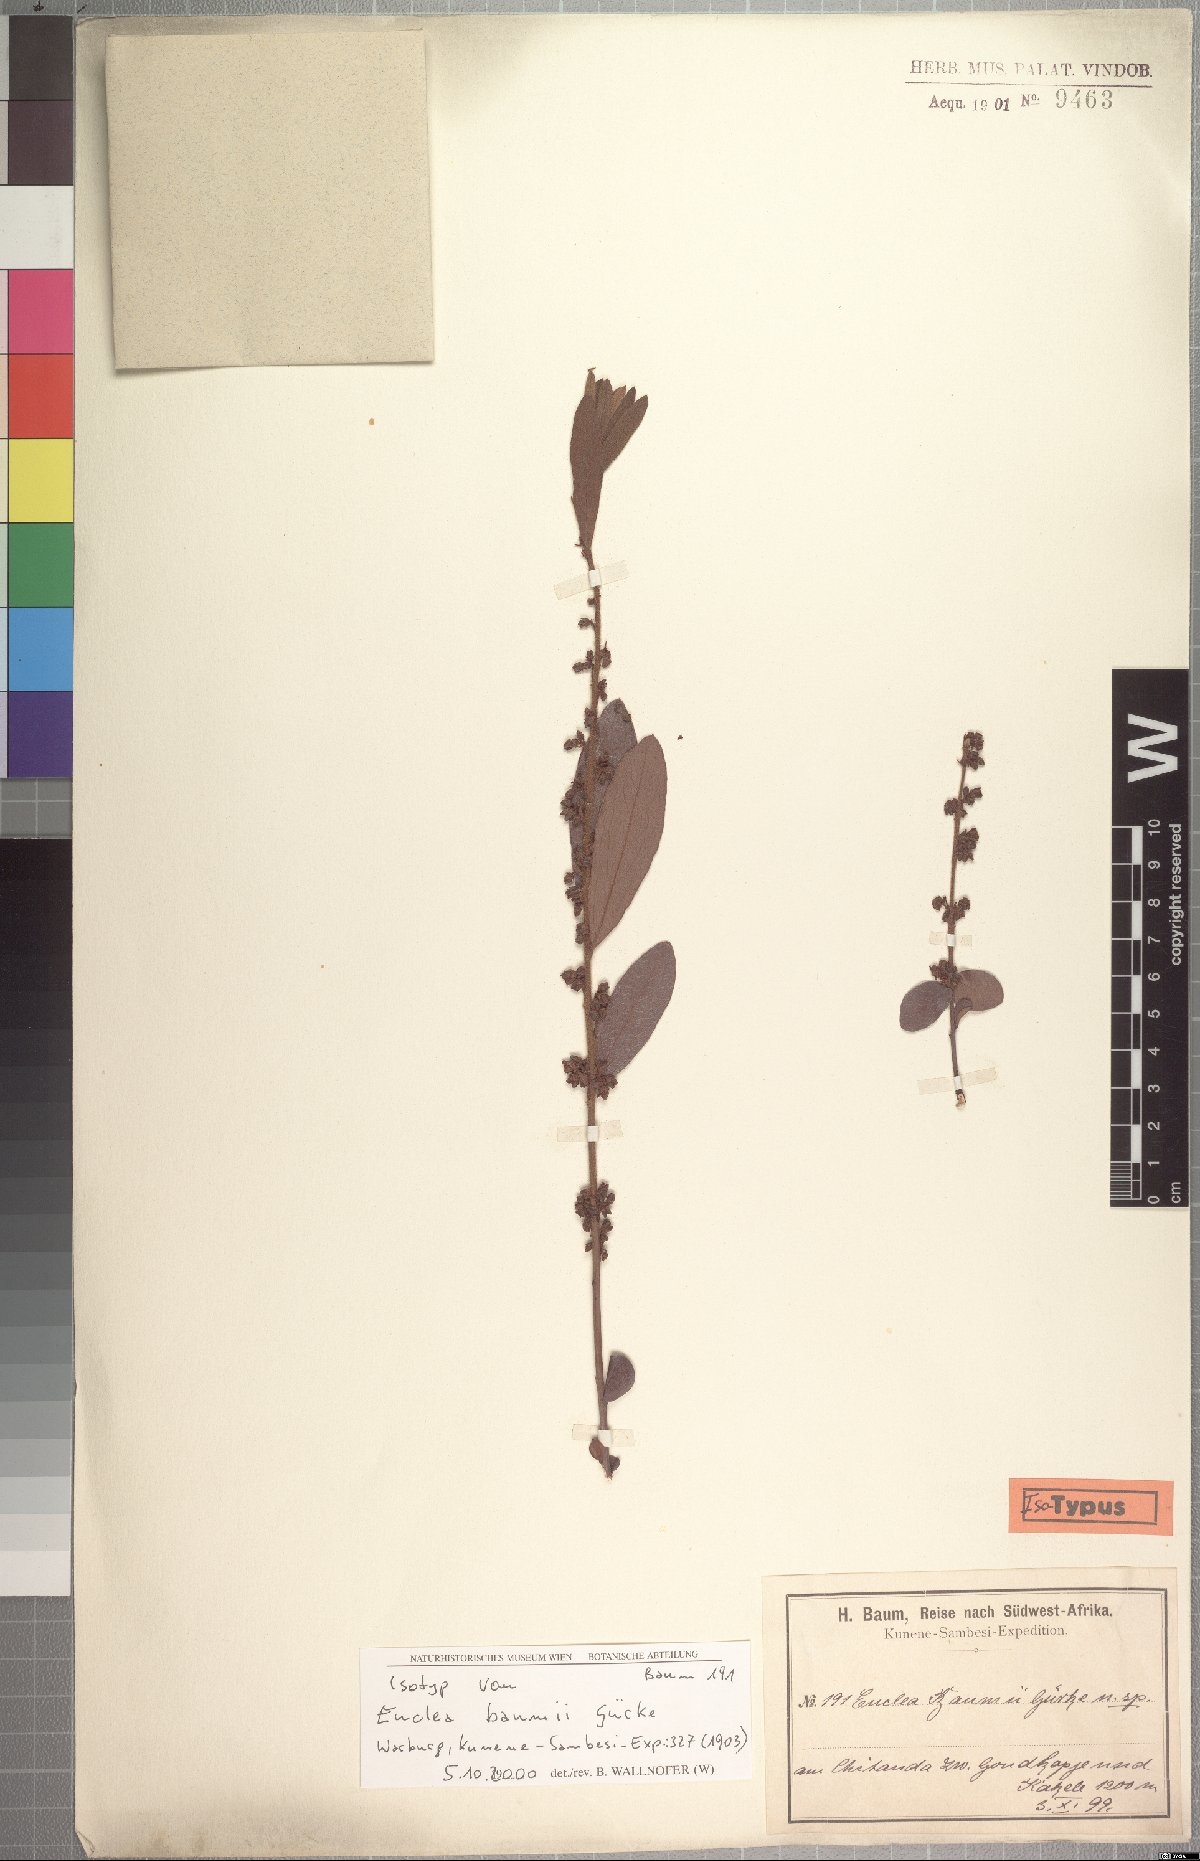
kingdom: Plantae
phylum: Tracheophyta
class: Magnoliopsida
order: Ericales
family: Ebenaceae
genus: Euclea
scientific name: Euclea crispa
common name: Blue guarri
